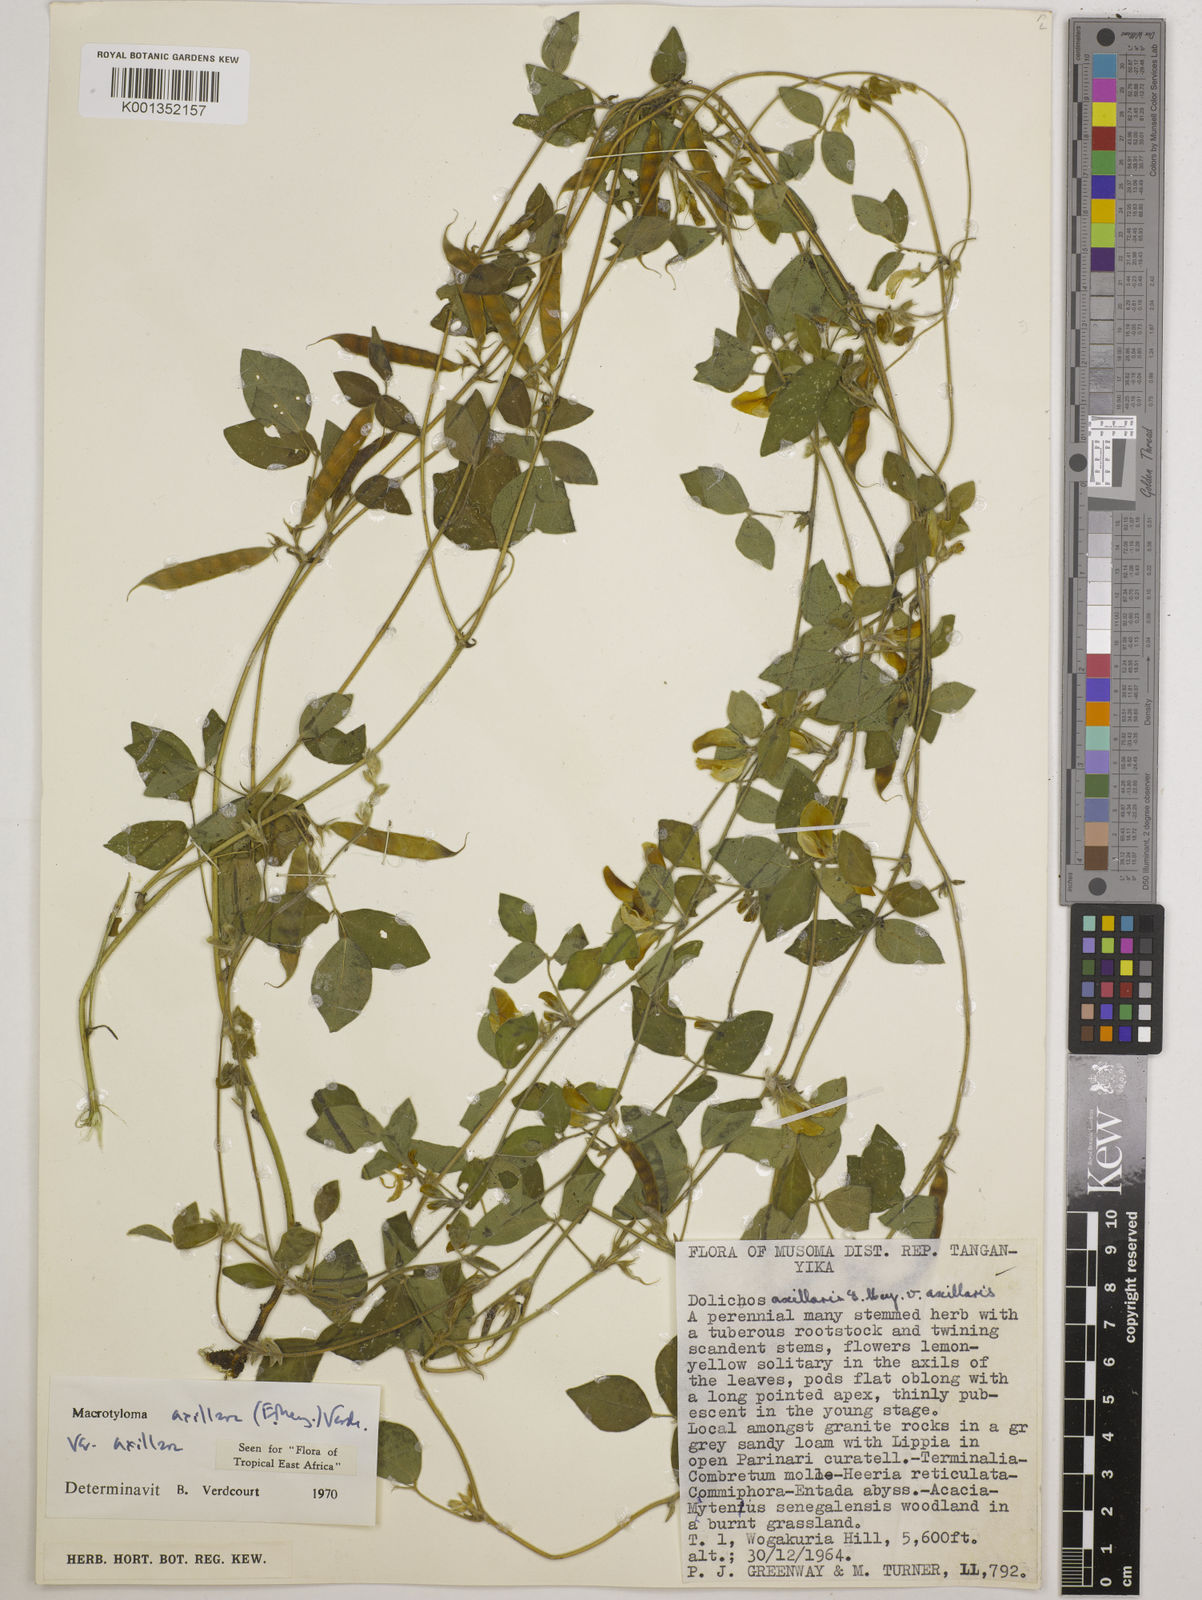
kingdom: Plantae
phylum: Tracheophyta
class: Magnoliopsida
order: Fabales
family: Fabaceae
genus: Macrotyloma
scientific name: Macrotyloma axillare
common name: Perennial horsegram
